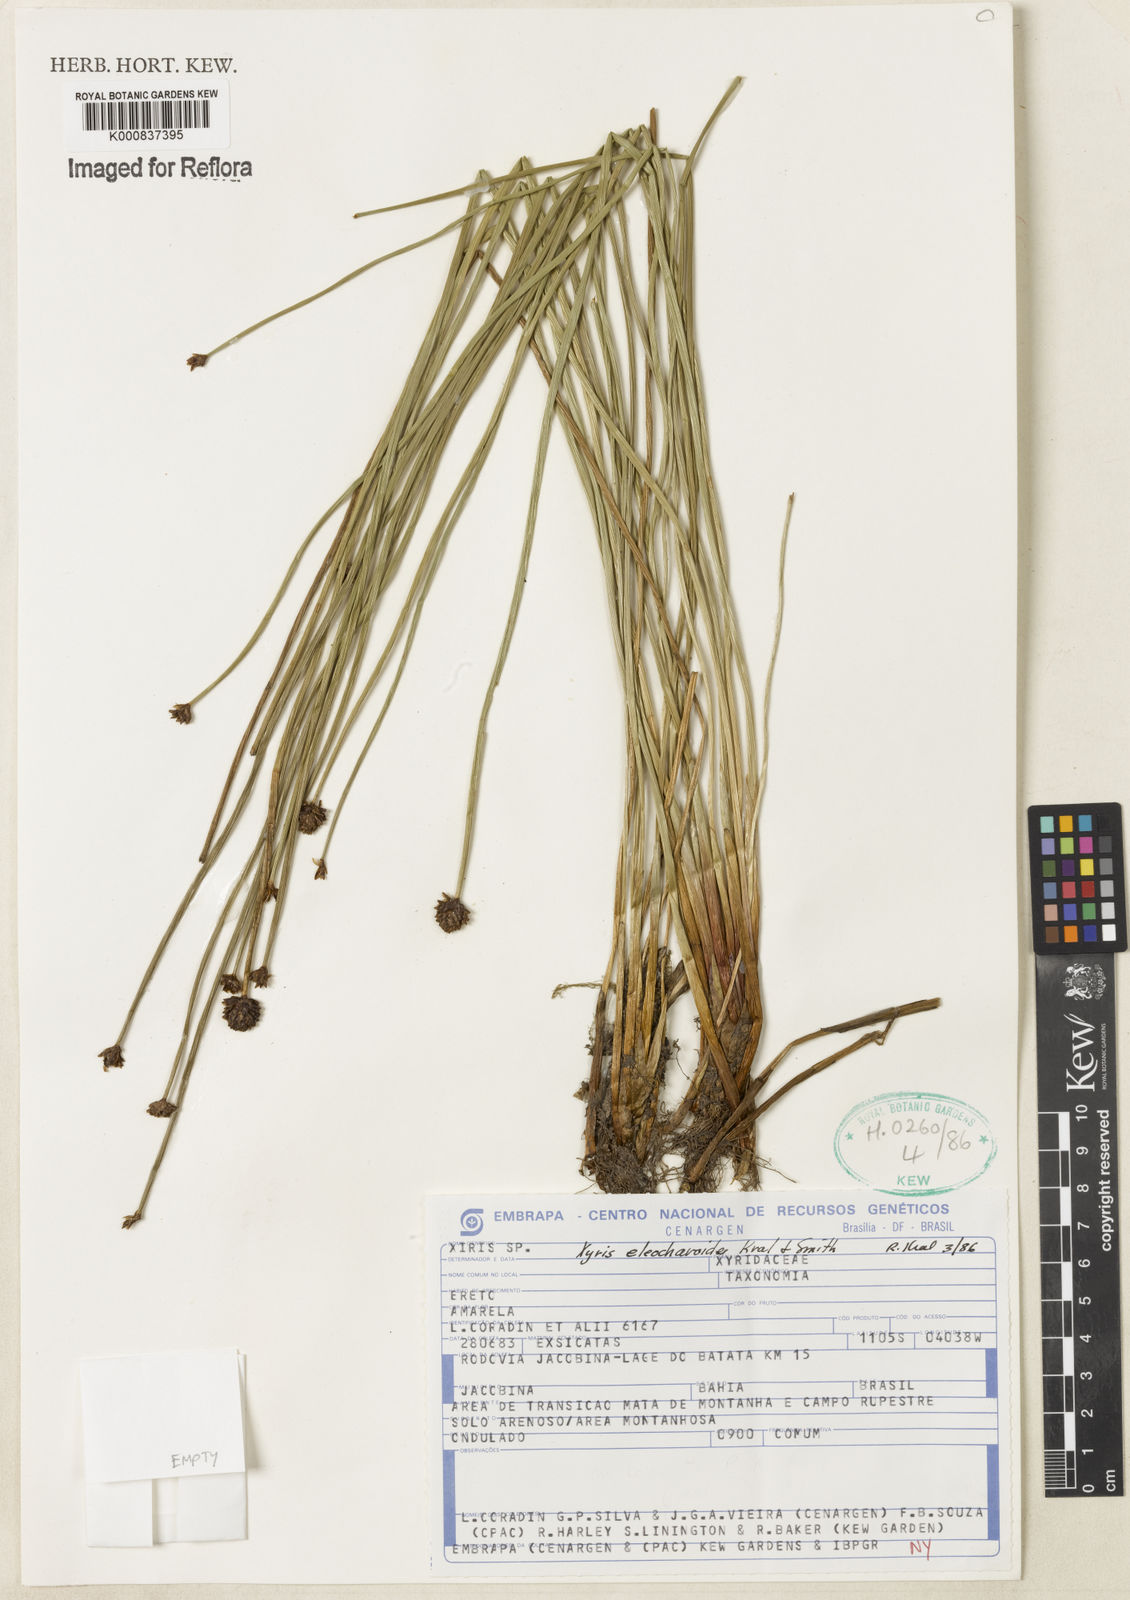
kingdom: Plantae
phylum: Tracheophyta
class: Liliopsida
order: Poales
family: Xyridaceae
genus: Xyris
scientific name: Xyris eleocharoides
